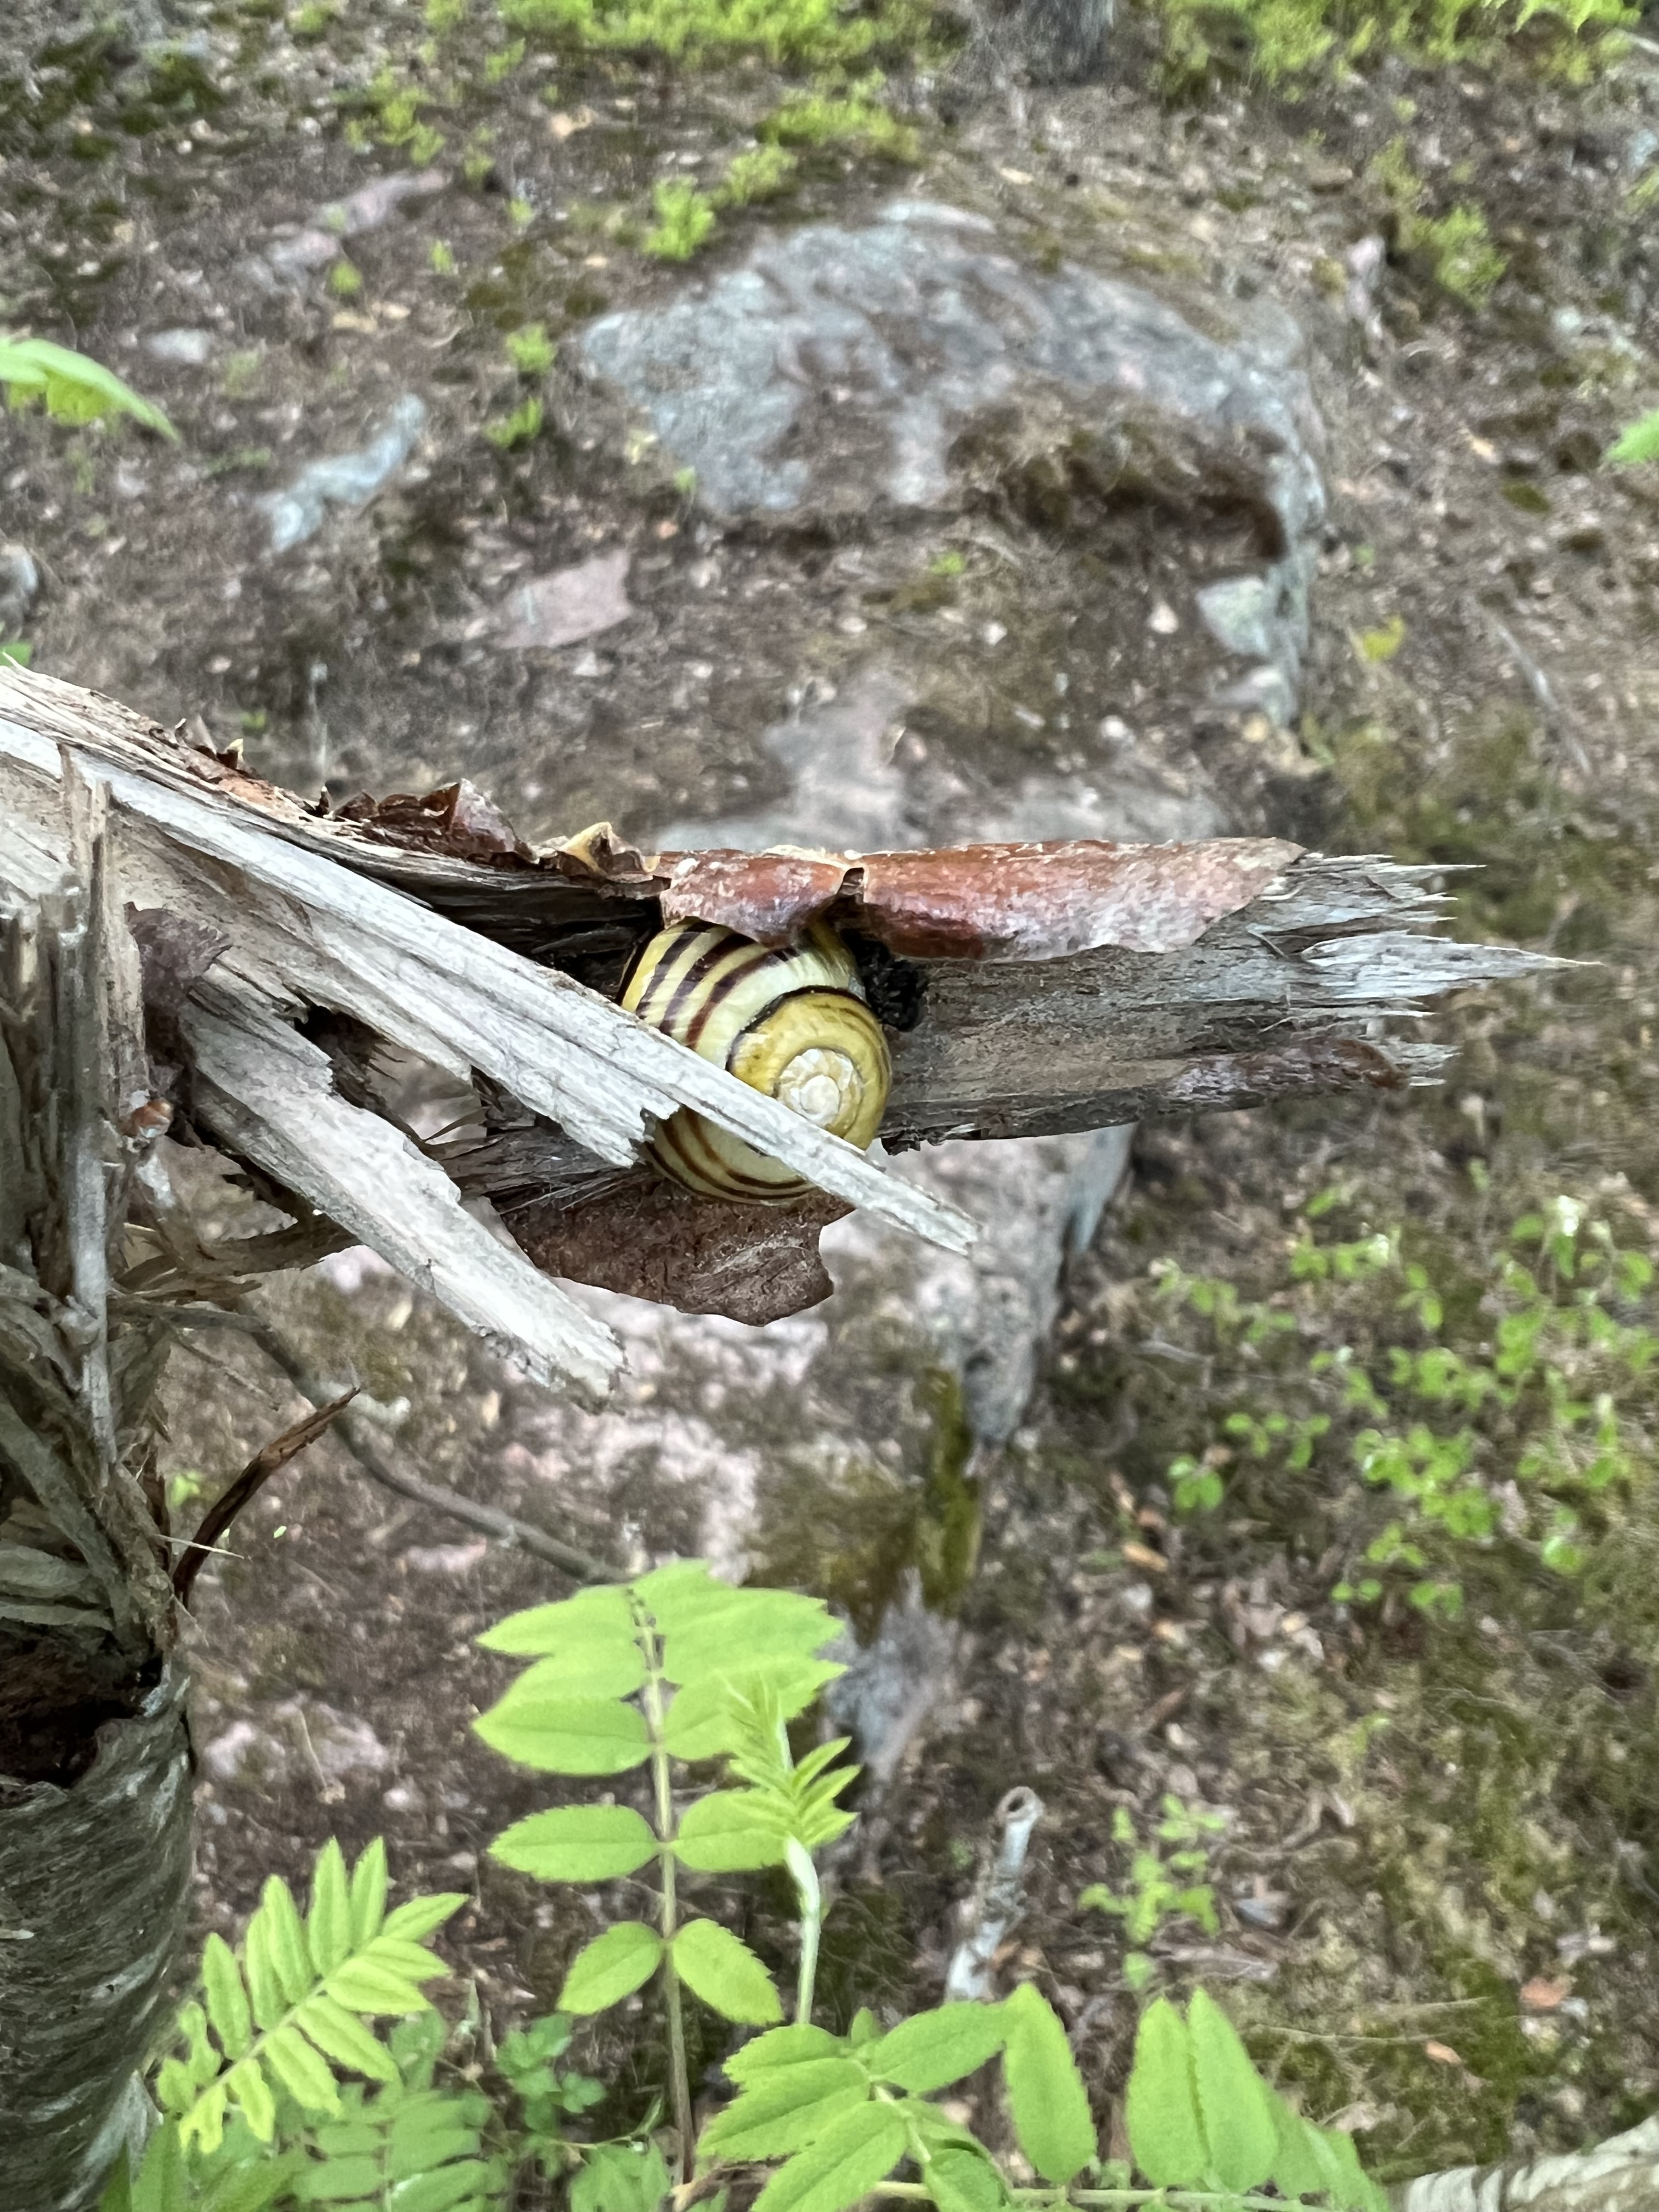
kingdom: Animalia
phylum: Mollusca
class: Gastropoda
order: Stylommatophora
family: Helicidae
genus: Cepaea
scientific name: Cepaea hortensis
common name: White-lip gardensnail
